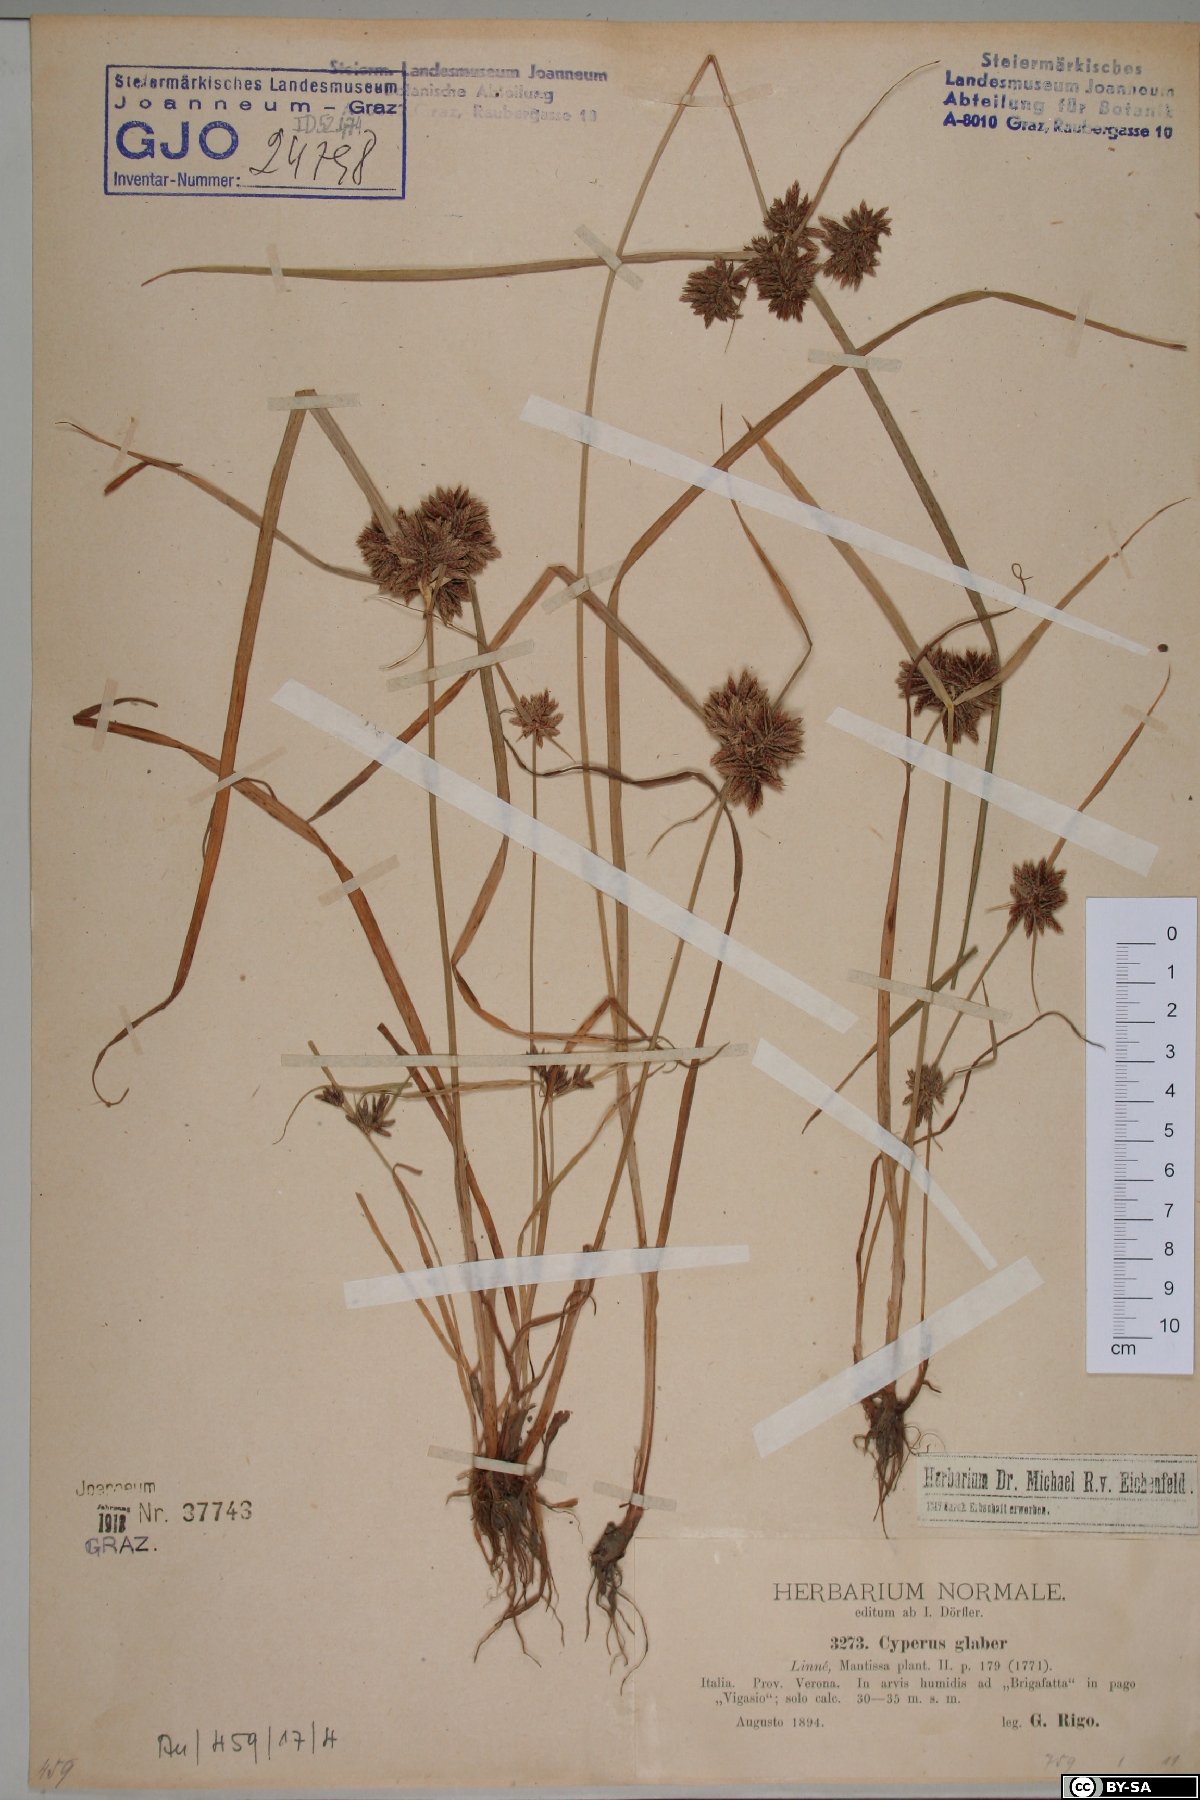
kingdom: Plantae
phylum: Tracheophyta
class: Liliopsida
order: Poales
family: Cyperaceae
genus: Cyperus
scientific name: Cyperus glaber
